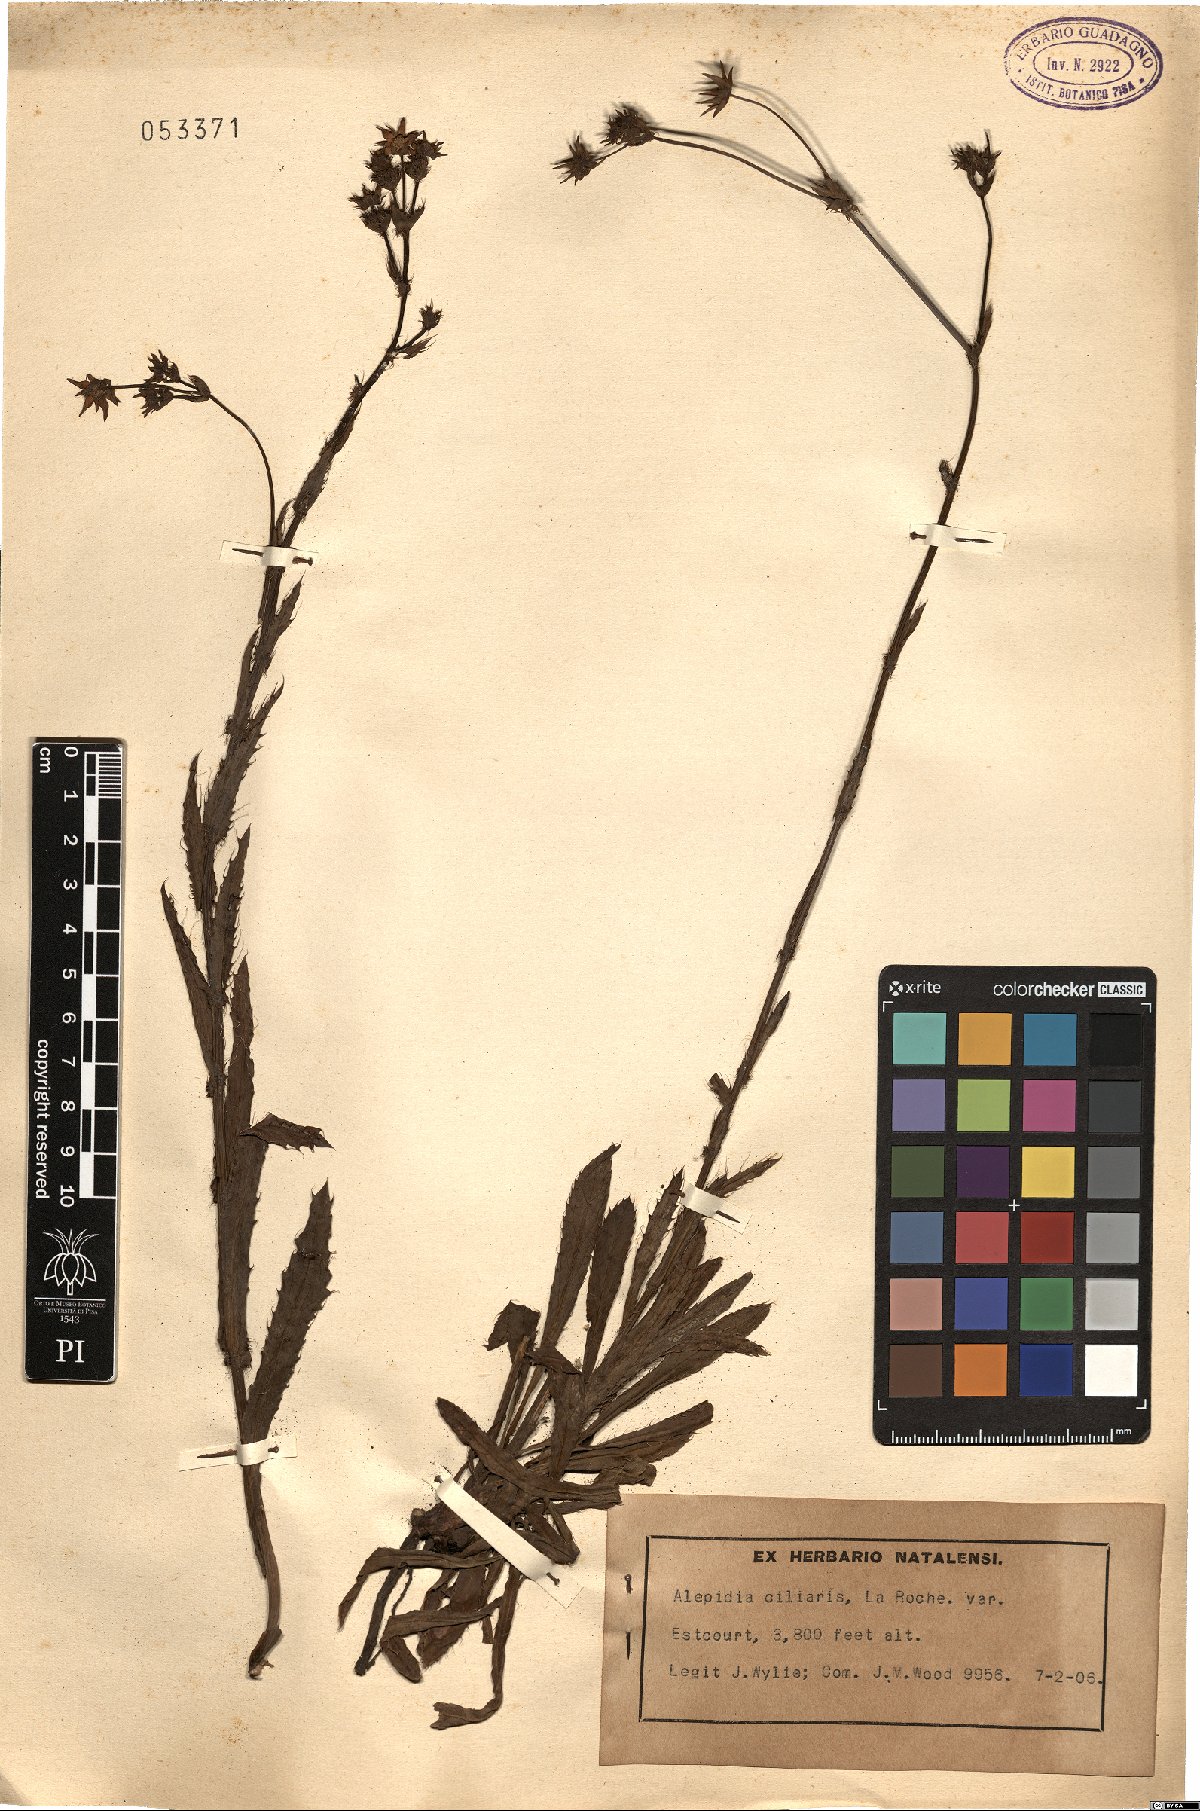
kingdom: Plantae
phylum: Tracheophyta
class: Magnoliopsida
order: Apiales
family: Apiaceae
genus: Alepidea
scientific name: Alepidea capensis
